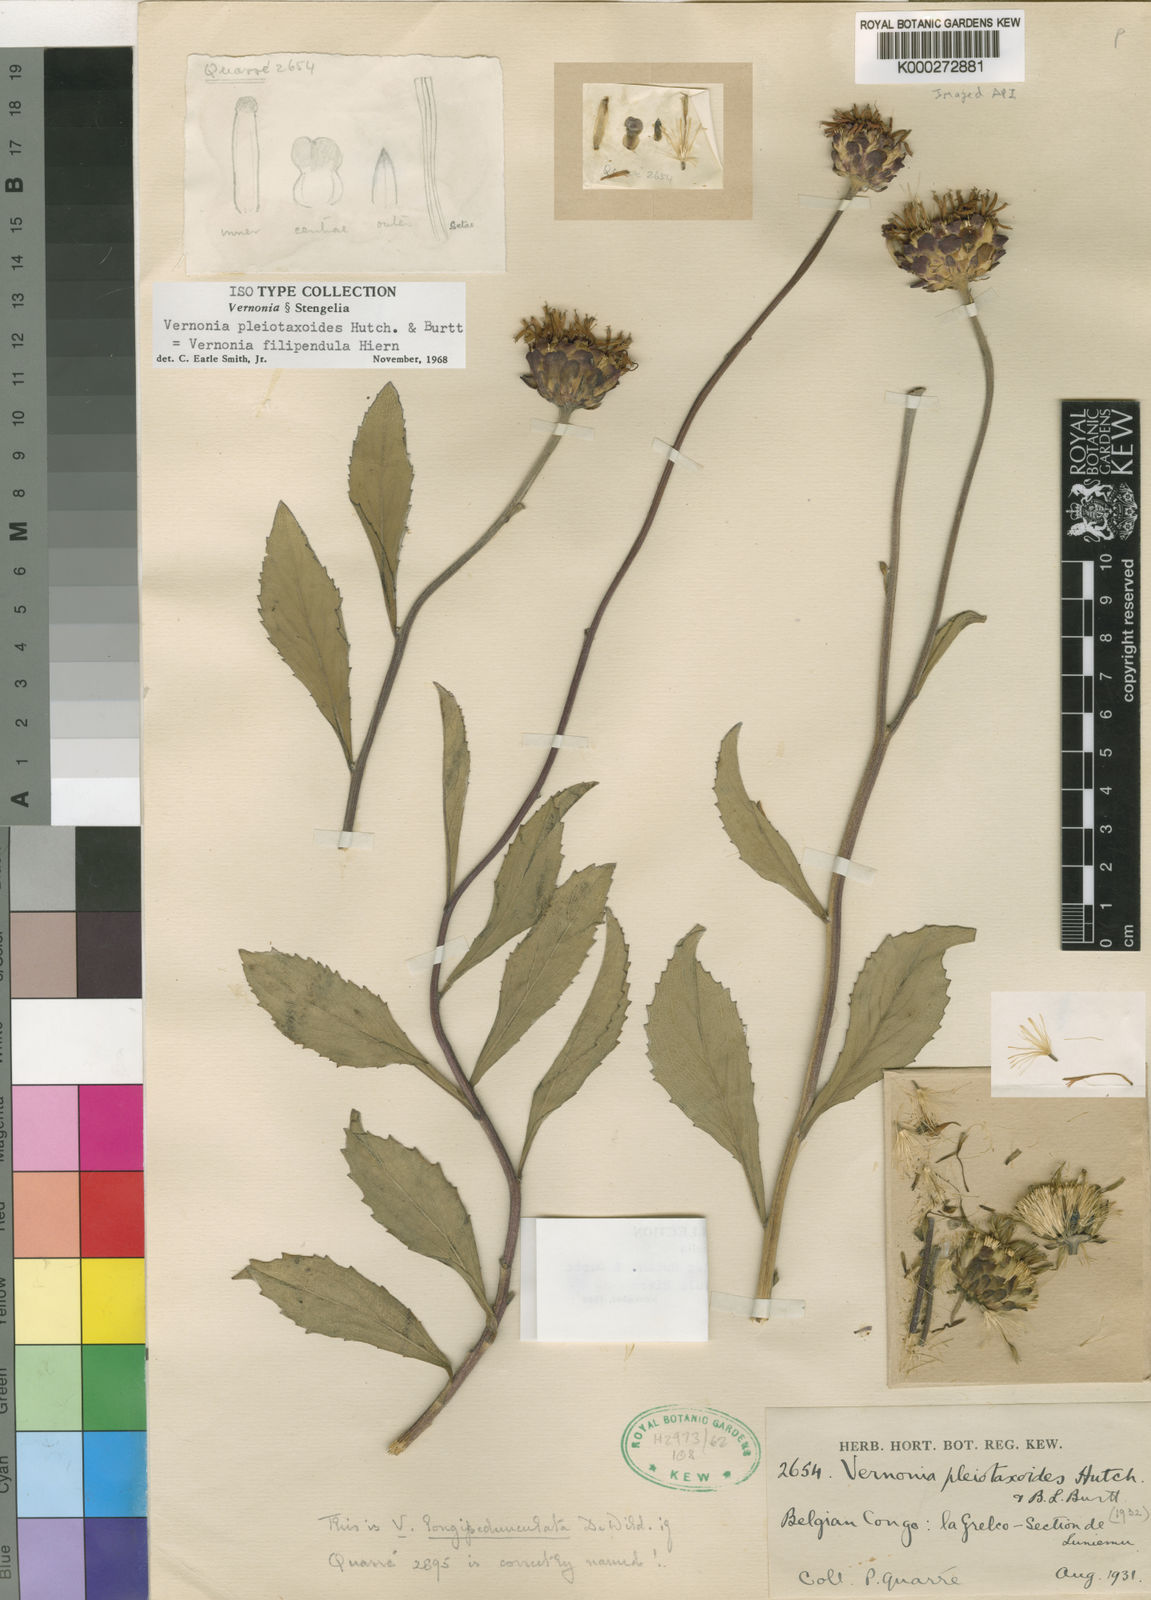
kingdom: Plantae
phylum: Tracheophyta
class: Magnoliopsida
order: Asterales
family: Asteraceae
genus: Vernonia
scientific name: Vernonia
